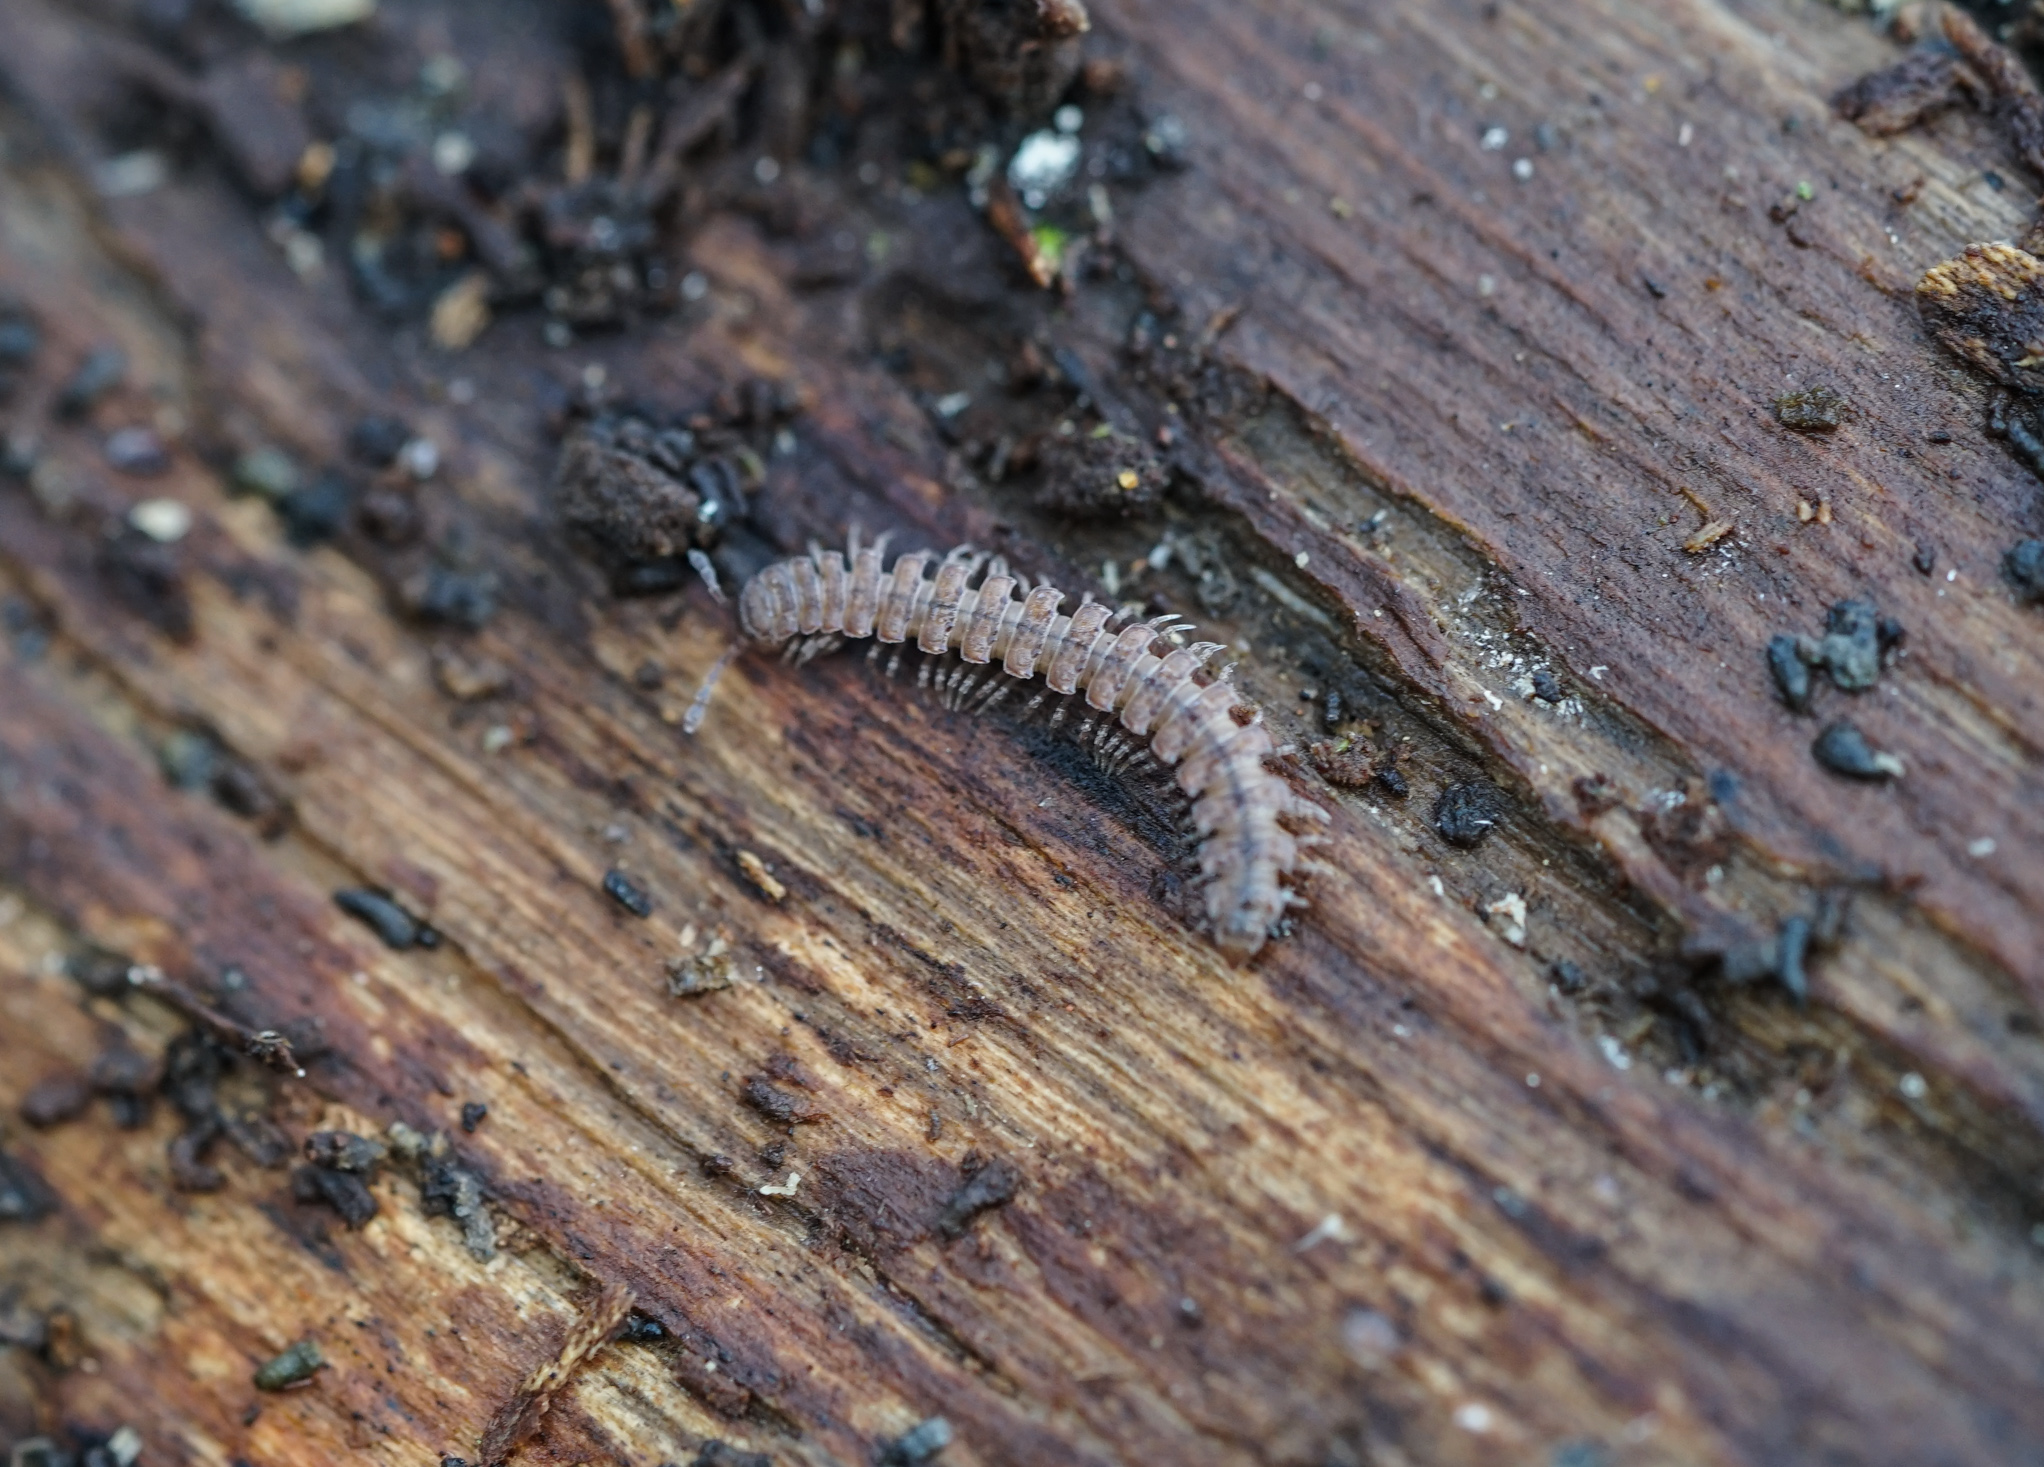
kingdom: Animalia
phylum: Arthropoda
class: Diplopoda
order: Polydesmida
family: Polydesmidae
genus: Polydesmus
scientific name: Polydesmus angustus
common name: Flat millipede
